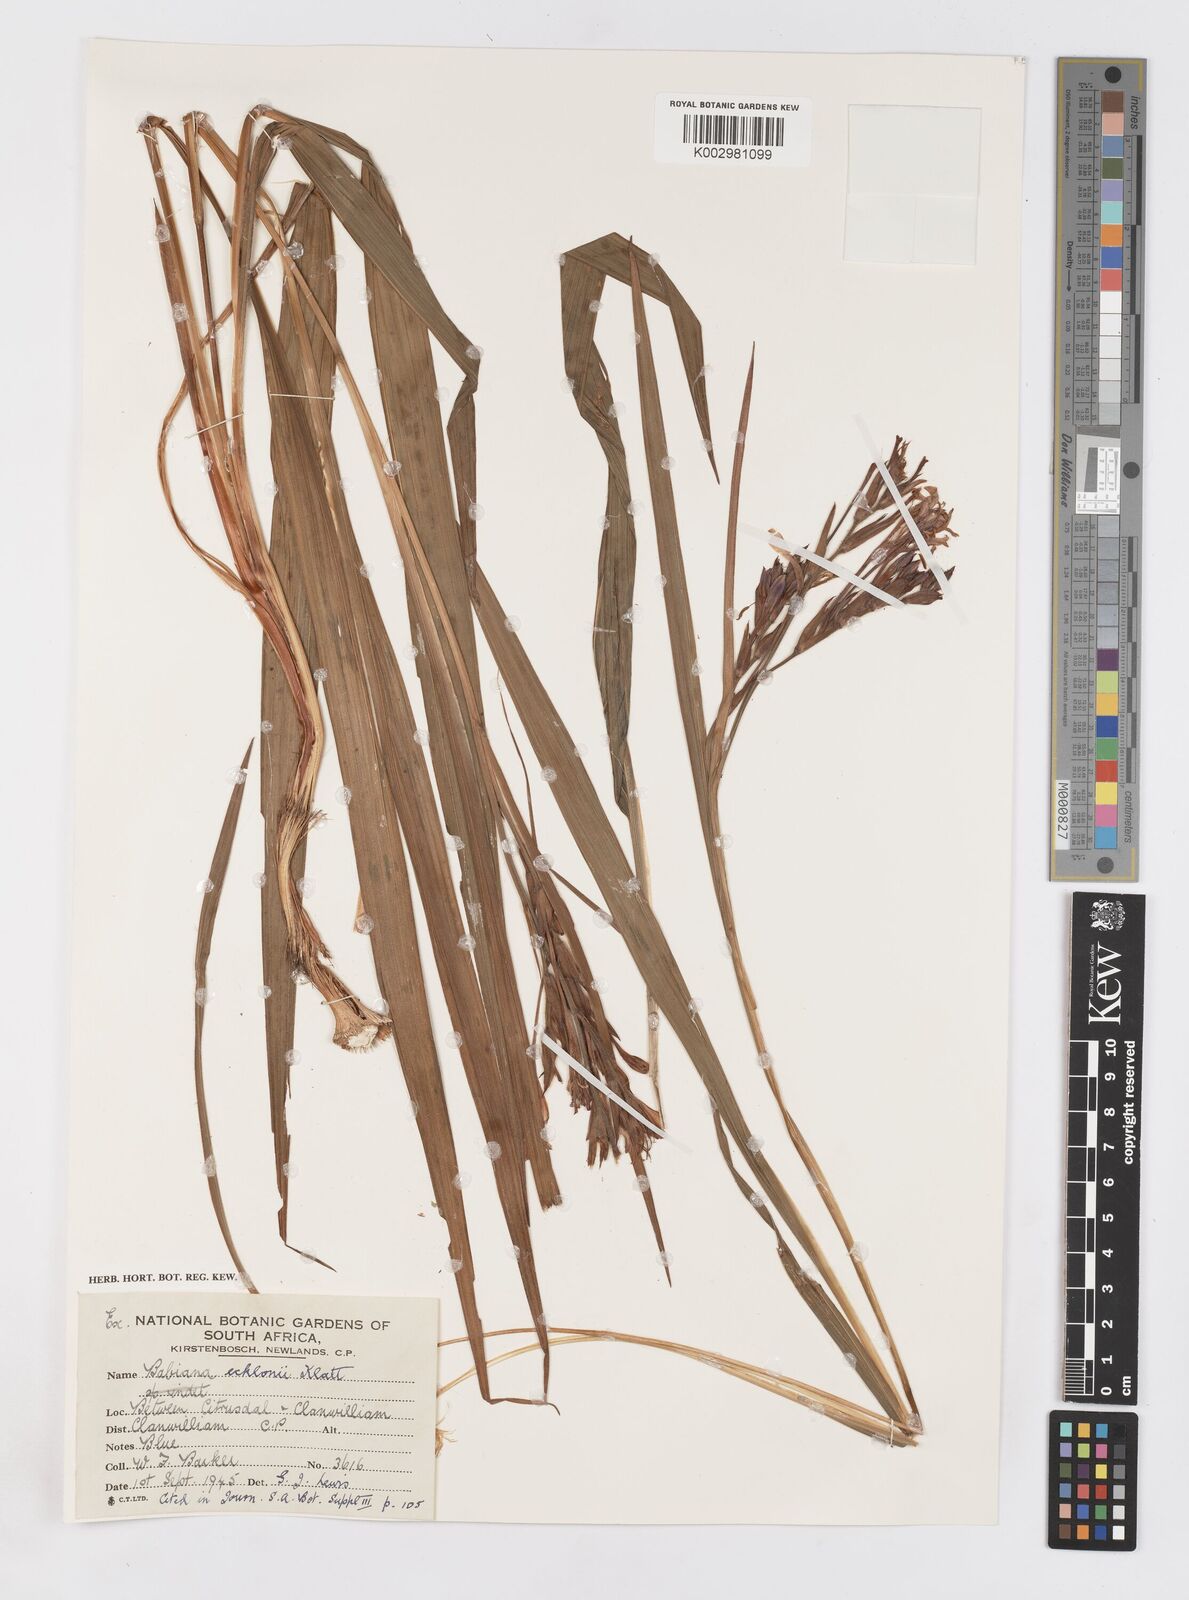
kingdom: Plantae
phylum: Tracheophyta
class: Liliopsida
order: Asparagales
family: Iridaceae
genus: Babiana
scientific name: Babiana ecklonii
